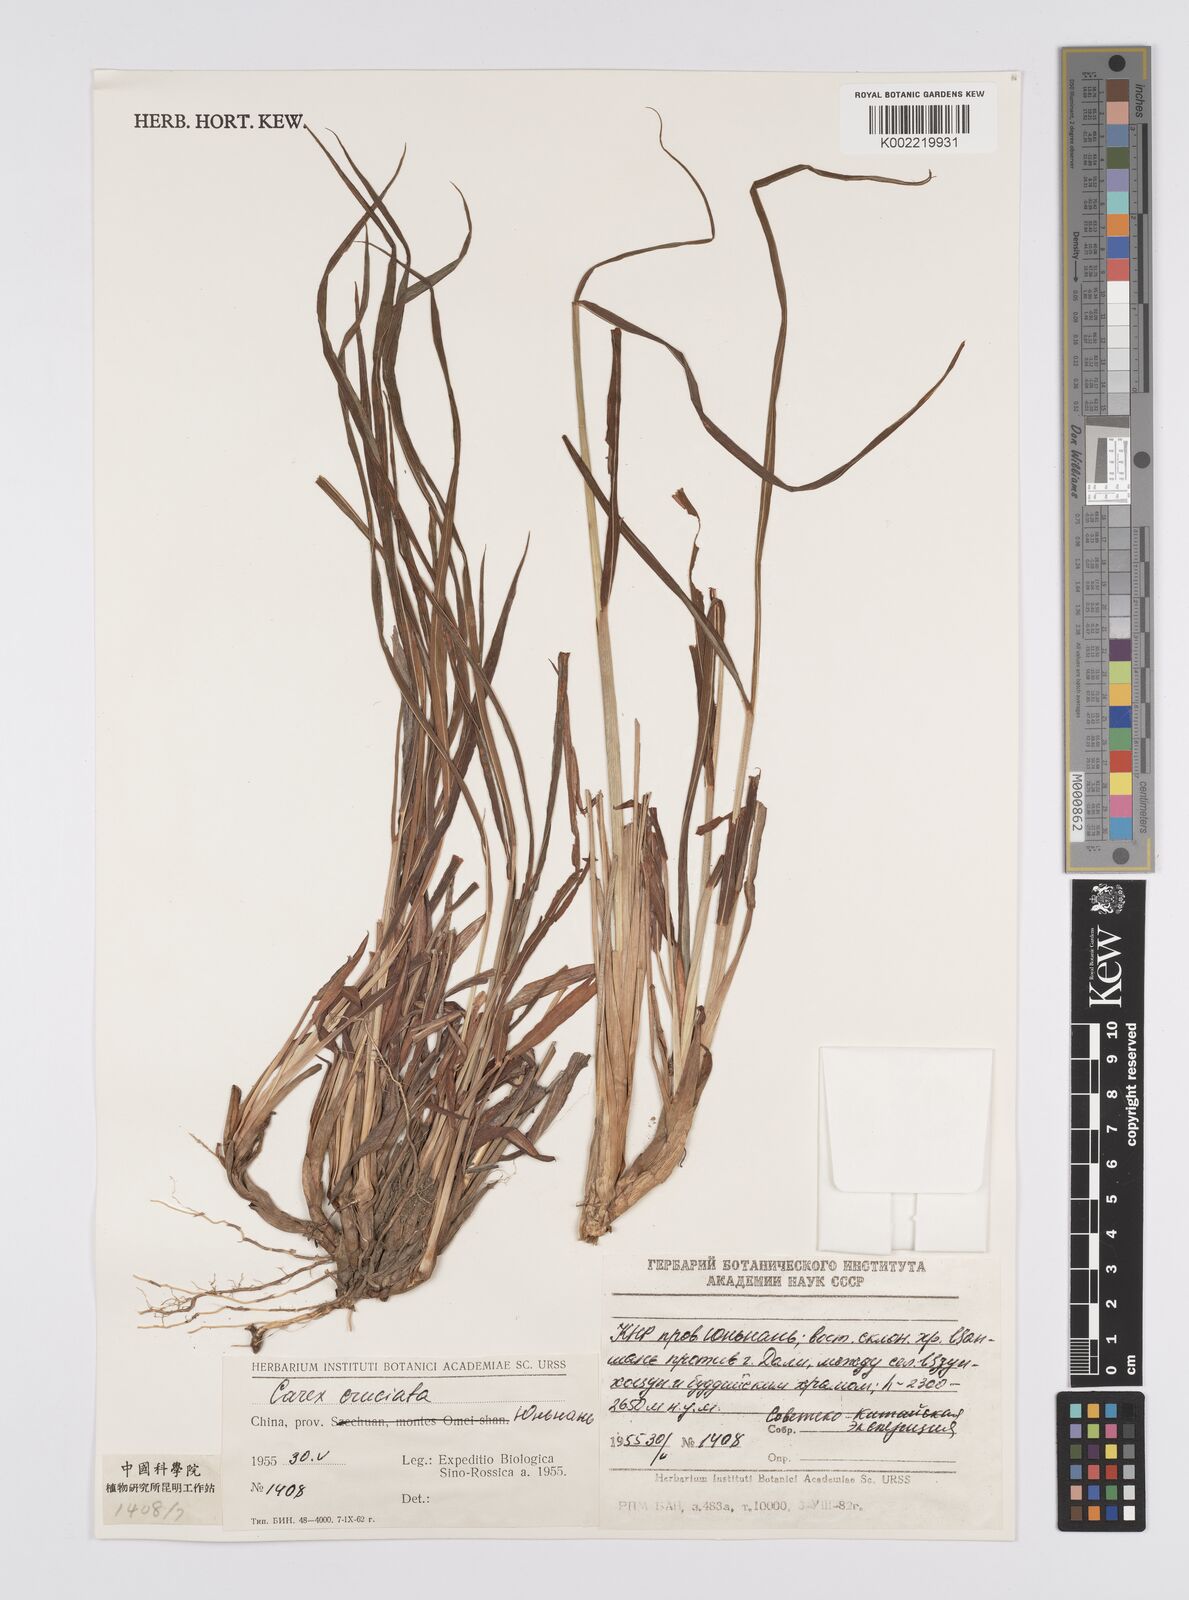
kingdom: Plantae
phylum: Tracheophyta
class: Liliopsida
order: Poales
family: Cyperaceae
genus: Carex
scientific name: Carex cruciata
